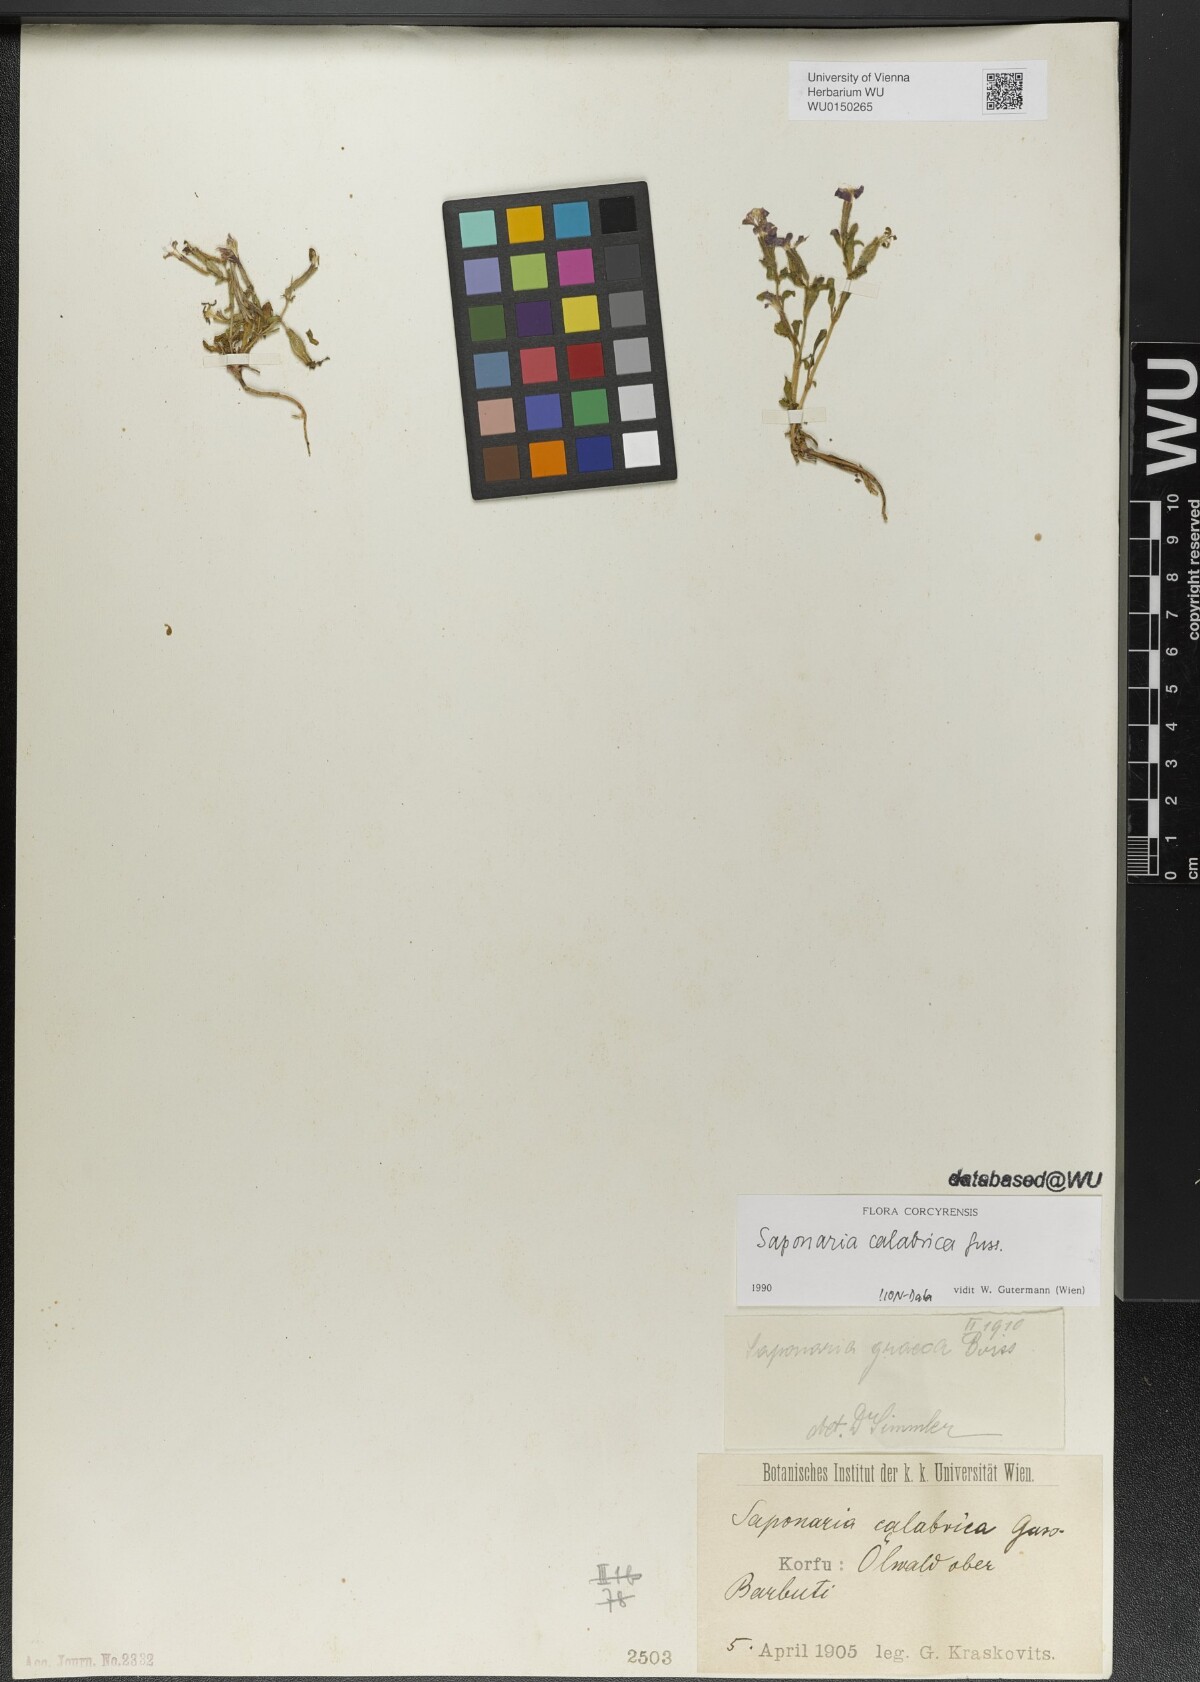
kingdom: Plantae
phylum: Tracheophyta
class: Magnoliopsida
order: Caryophyllales
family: Caryophyllaceae
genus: Saponaria
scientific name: Saponaria calabrica
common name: Adriatic soapwort
